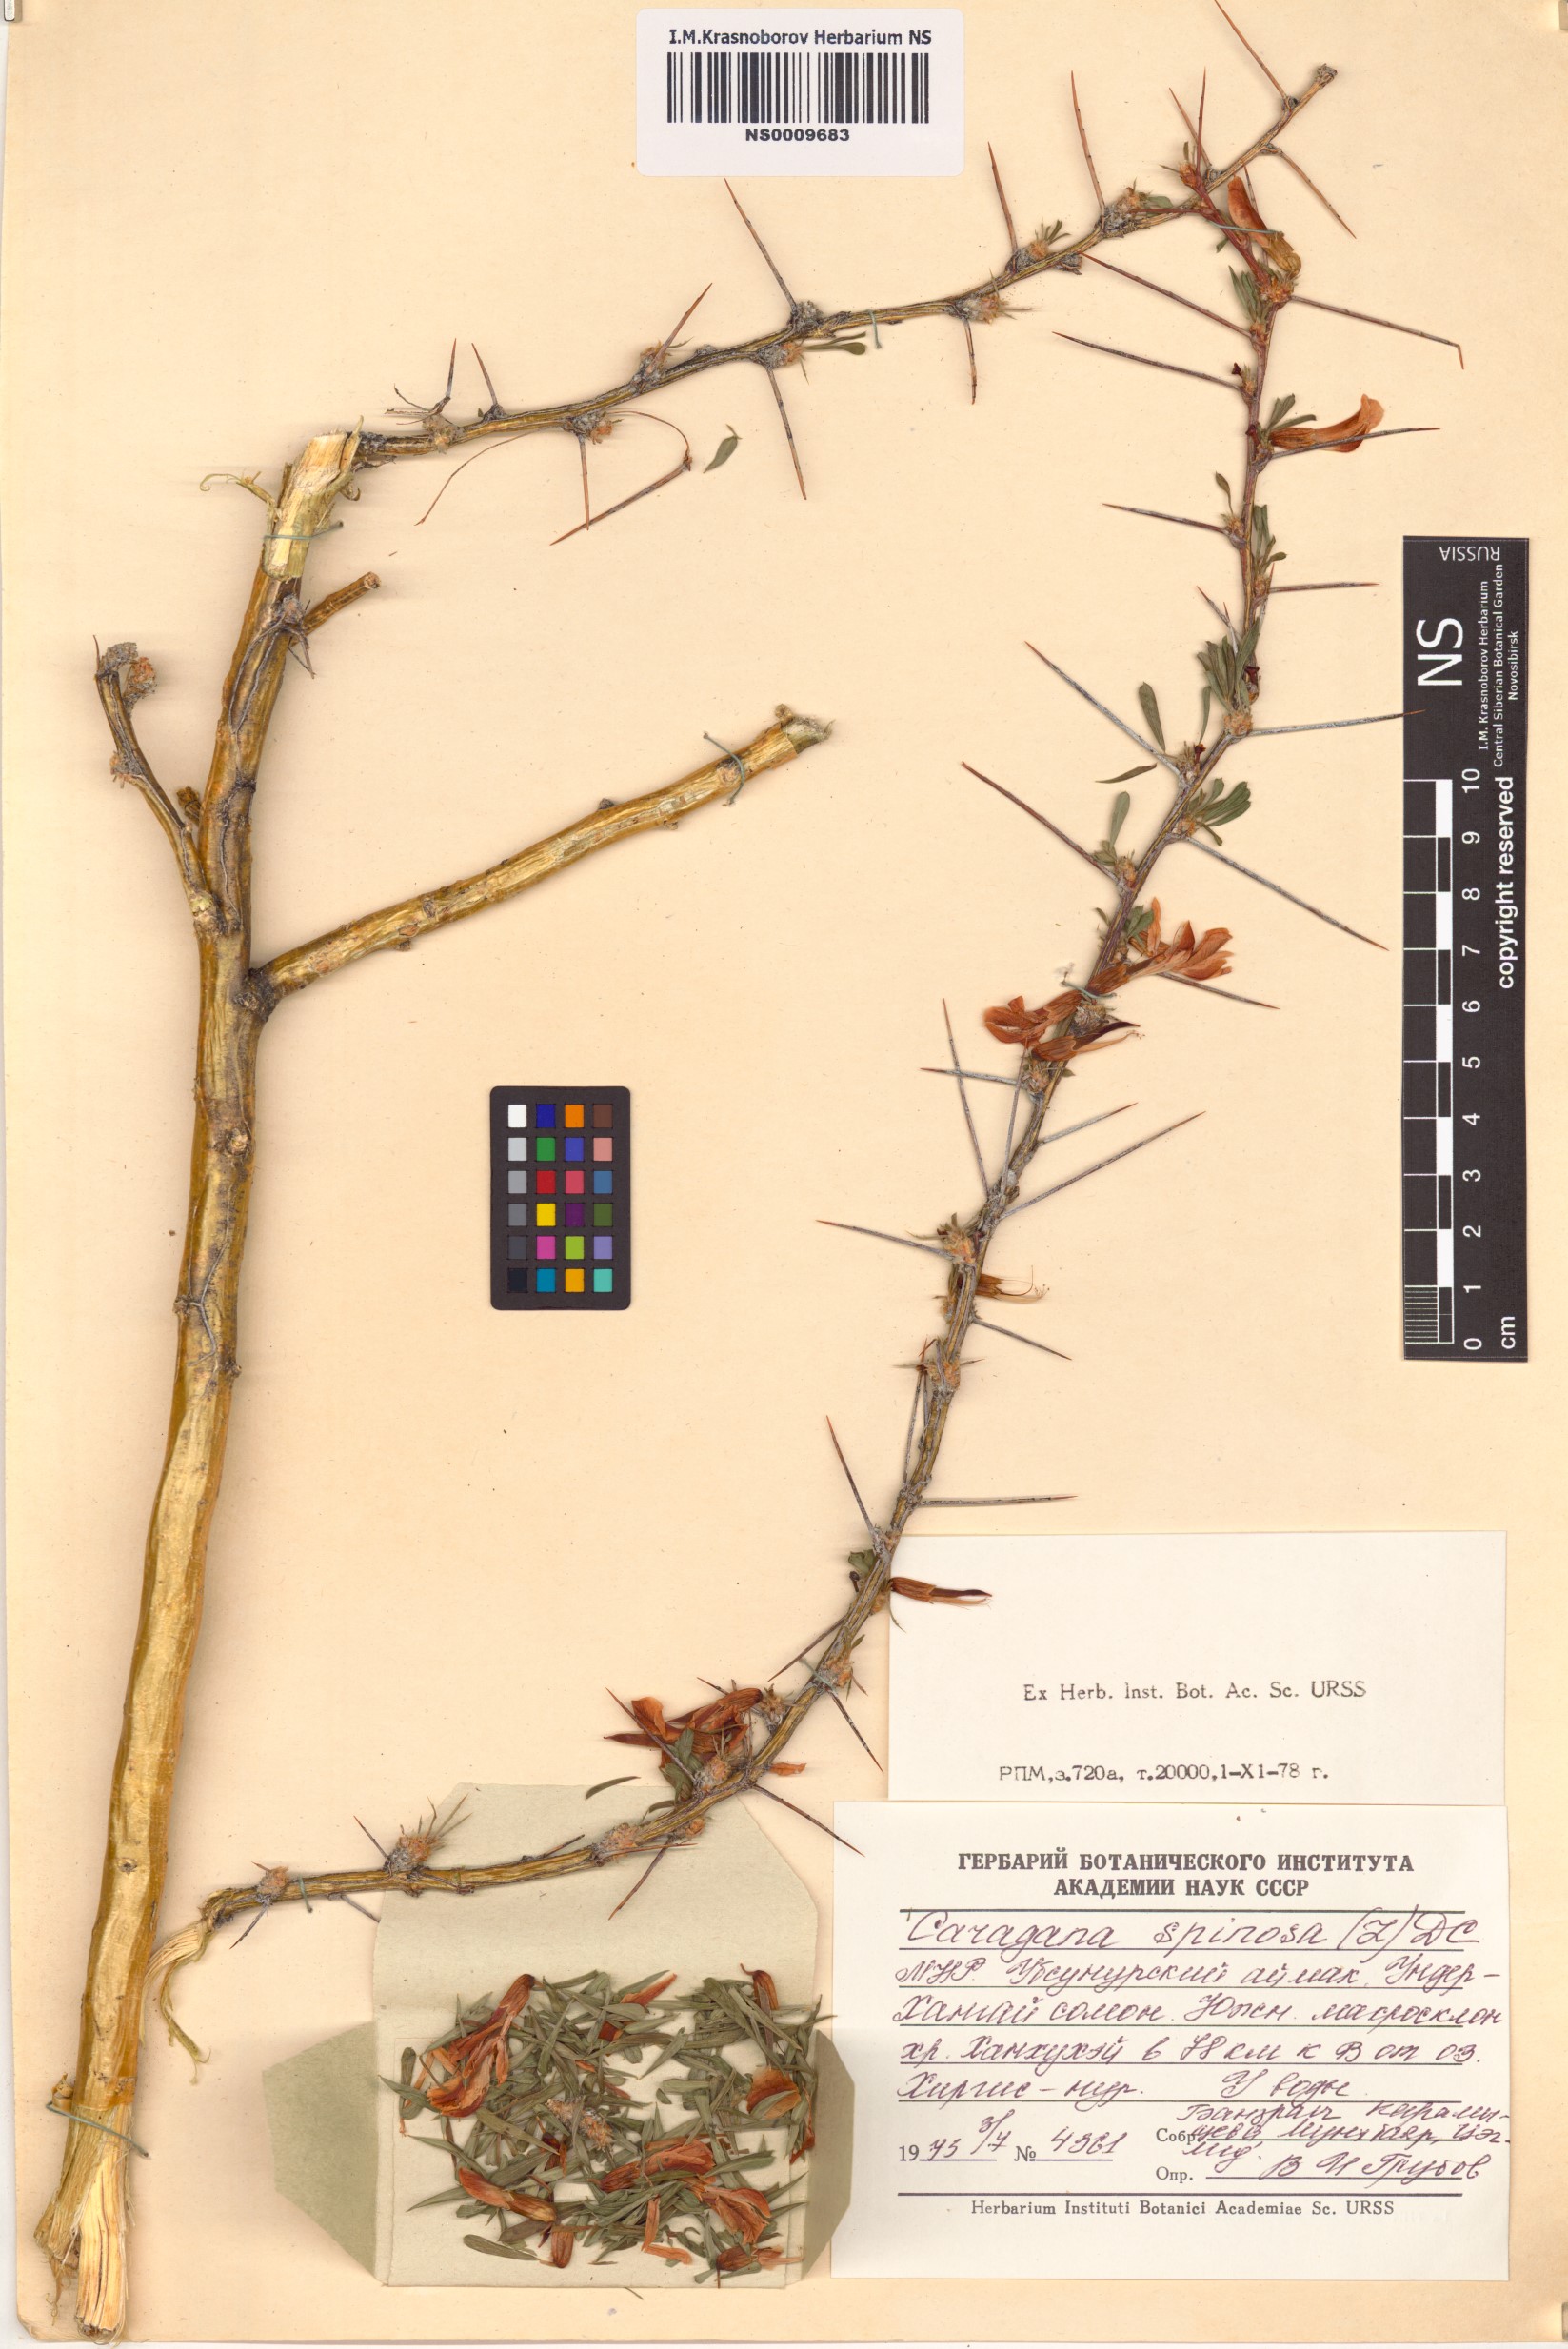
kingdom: Plantae
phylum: Tracheophyta
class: Magnoliopsida
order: Fabales
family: Fabaceae
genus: Caragana
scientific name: Caragana spinosa
